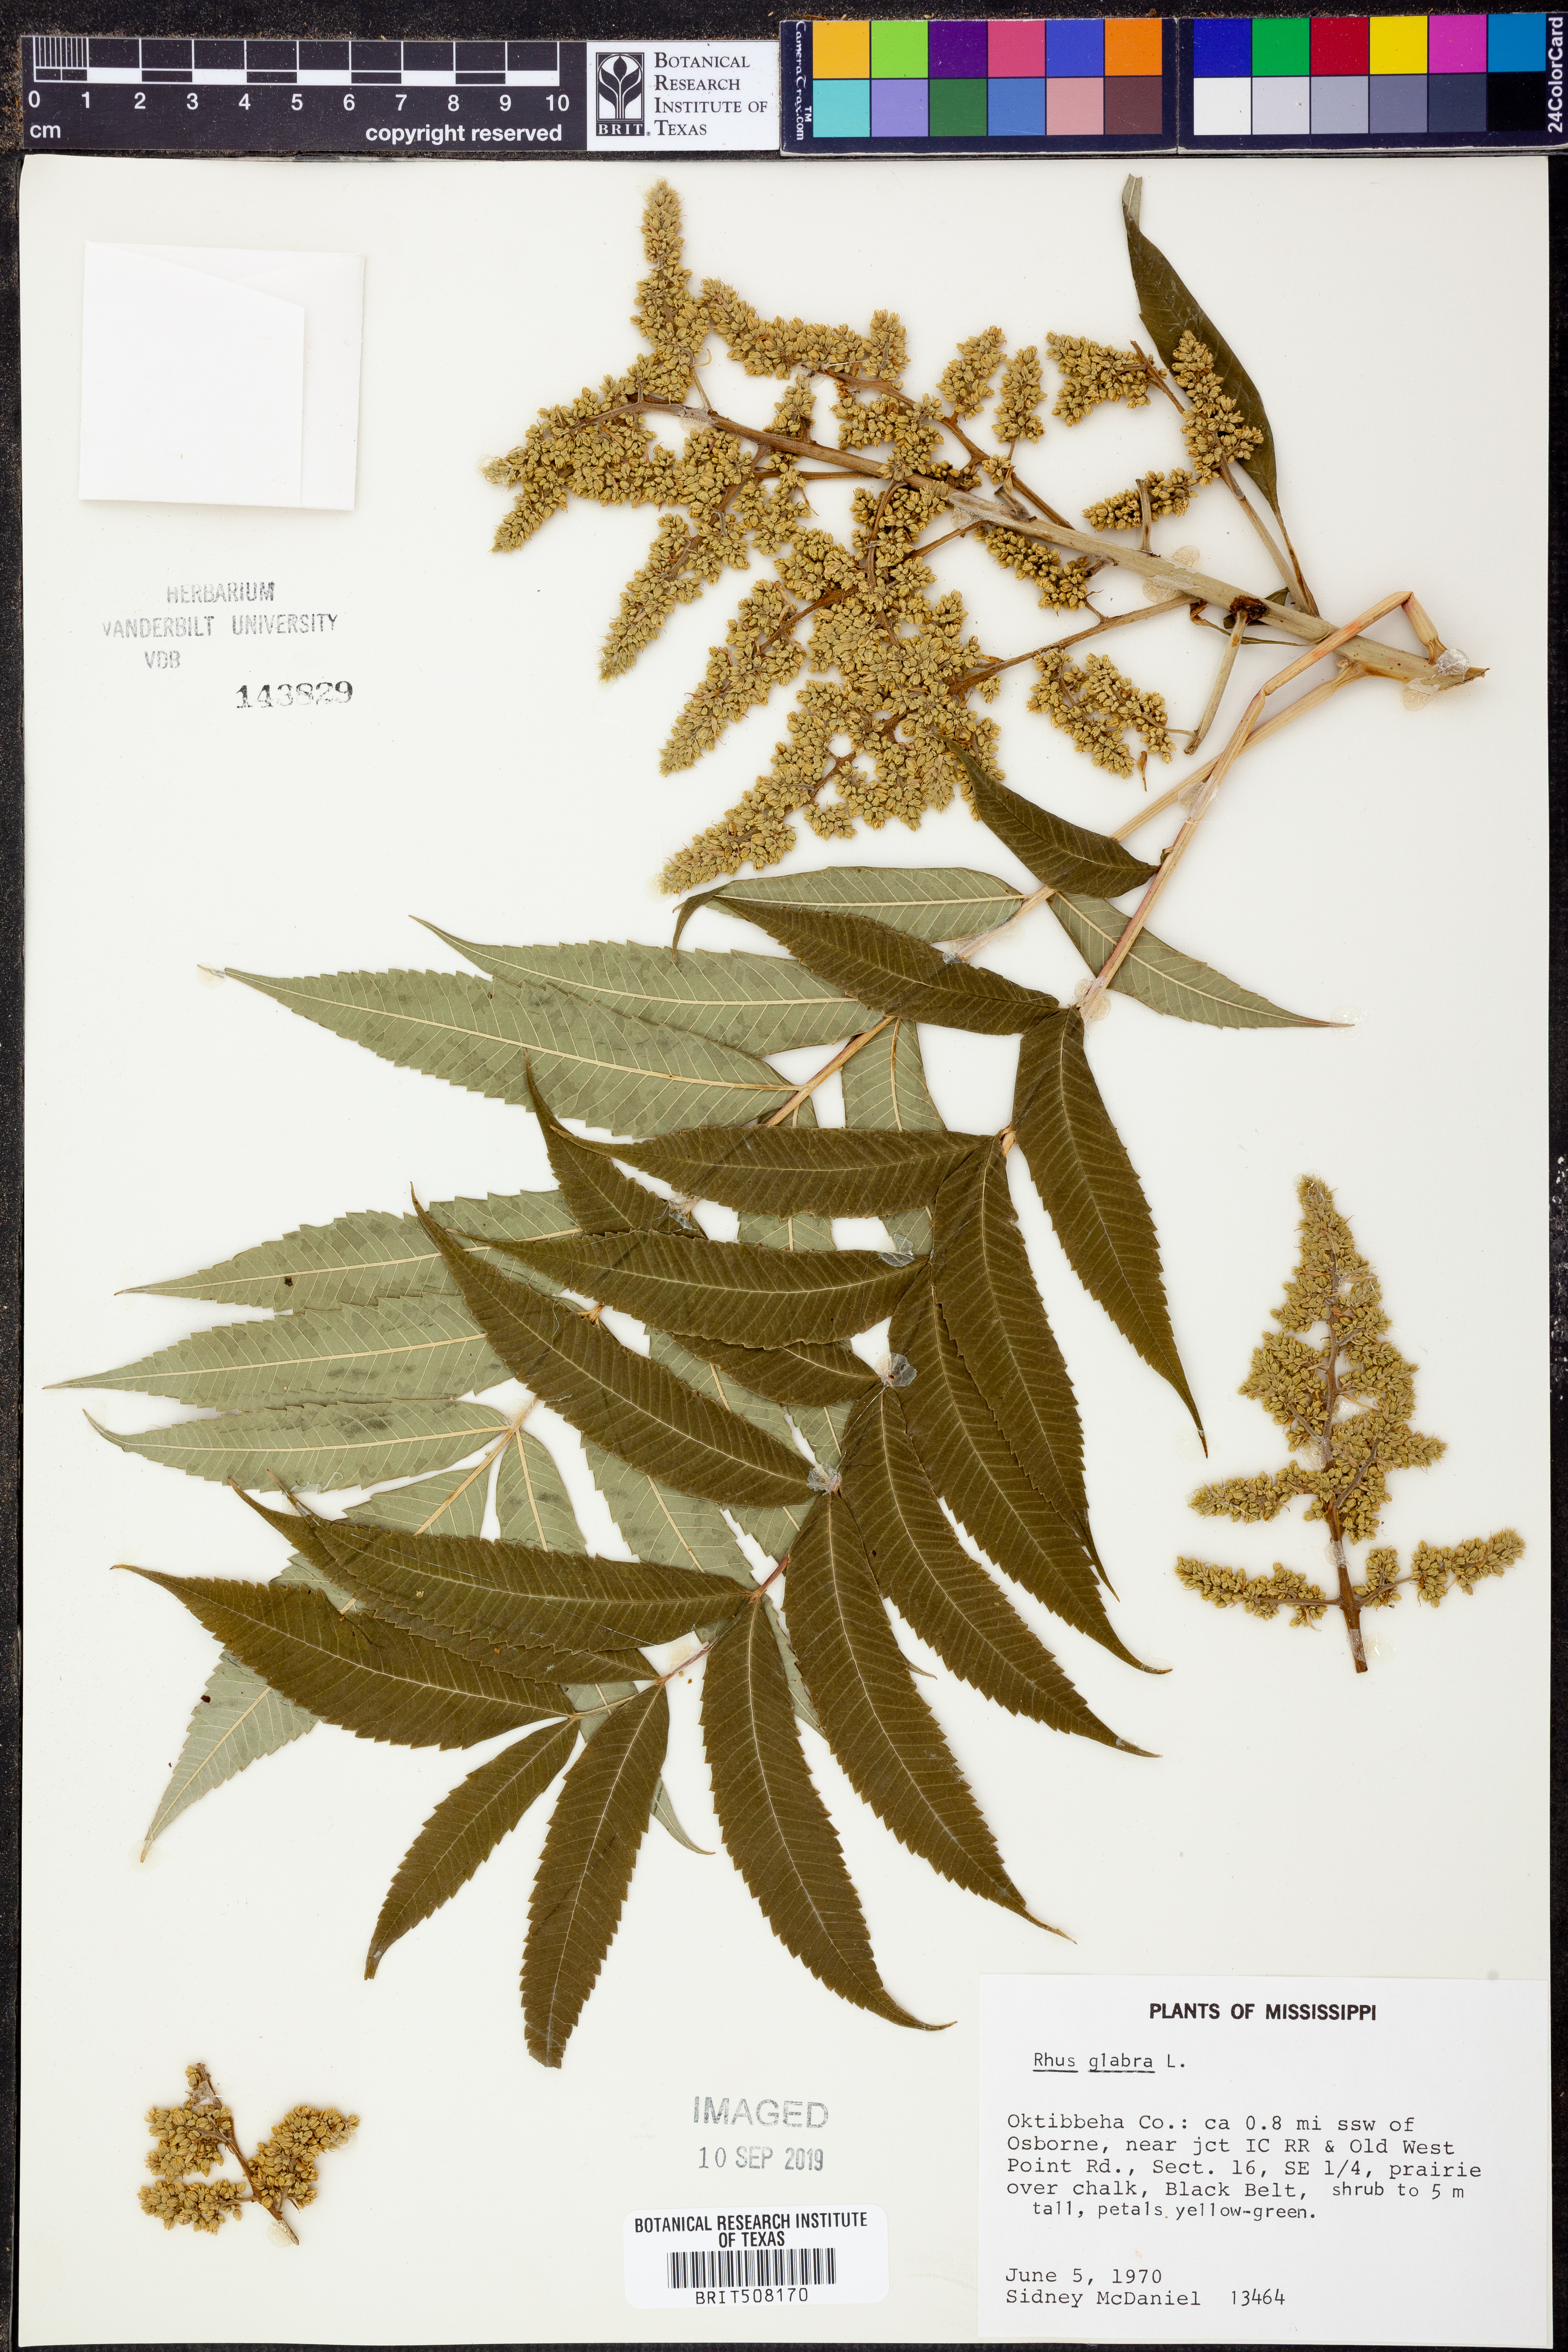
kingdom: Plantae
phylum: Tracheophyta
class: Magnoliopsida
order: Sapindales
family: Anacardiaceae
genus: Rhus
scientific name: Rhus glabra
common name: Scarlet sumac
